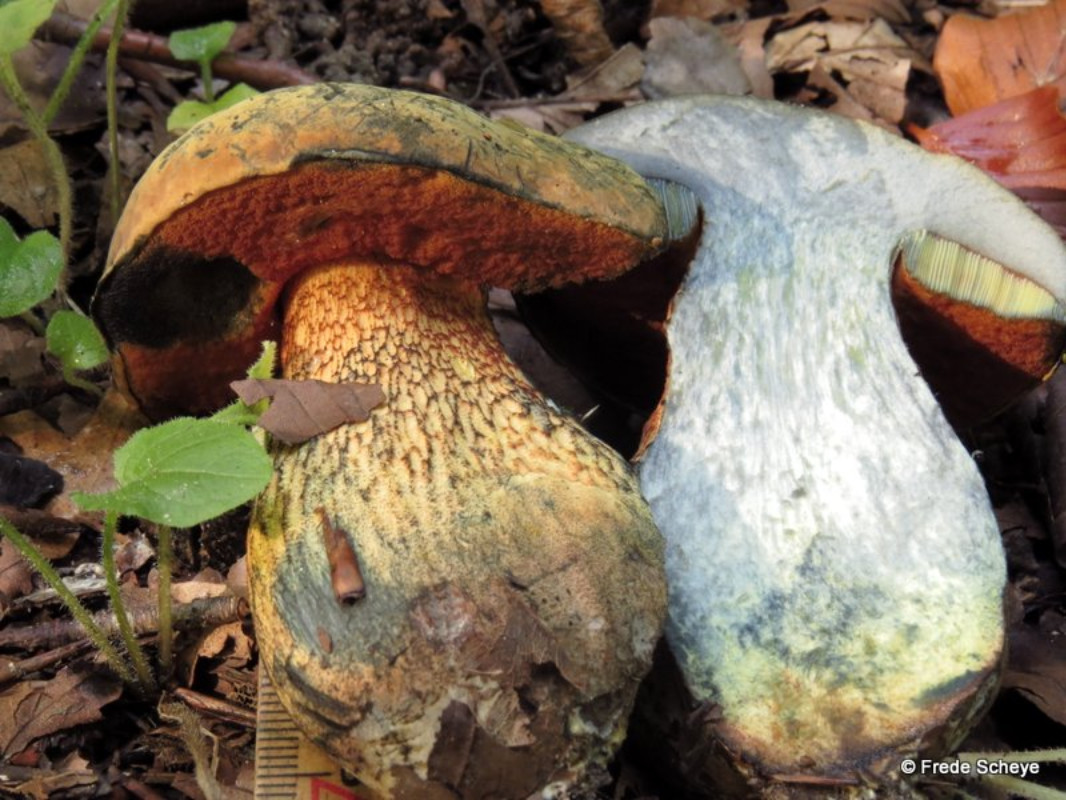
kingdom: Fungi
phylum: Basidiomycota
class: Agaricomycetes
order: Boletales
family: Boletaceae
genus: Suillellus
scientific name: Suillellus luridus
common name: netstokket indigorørhat
